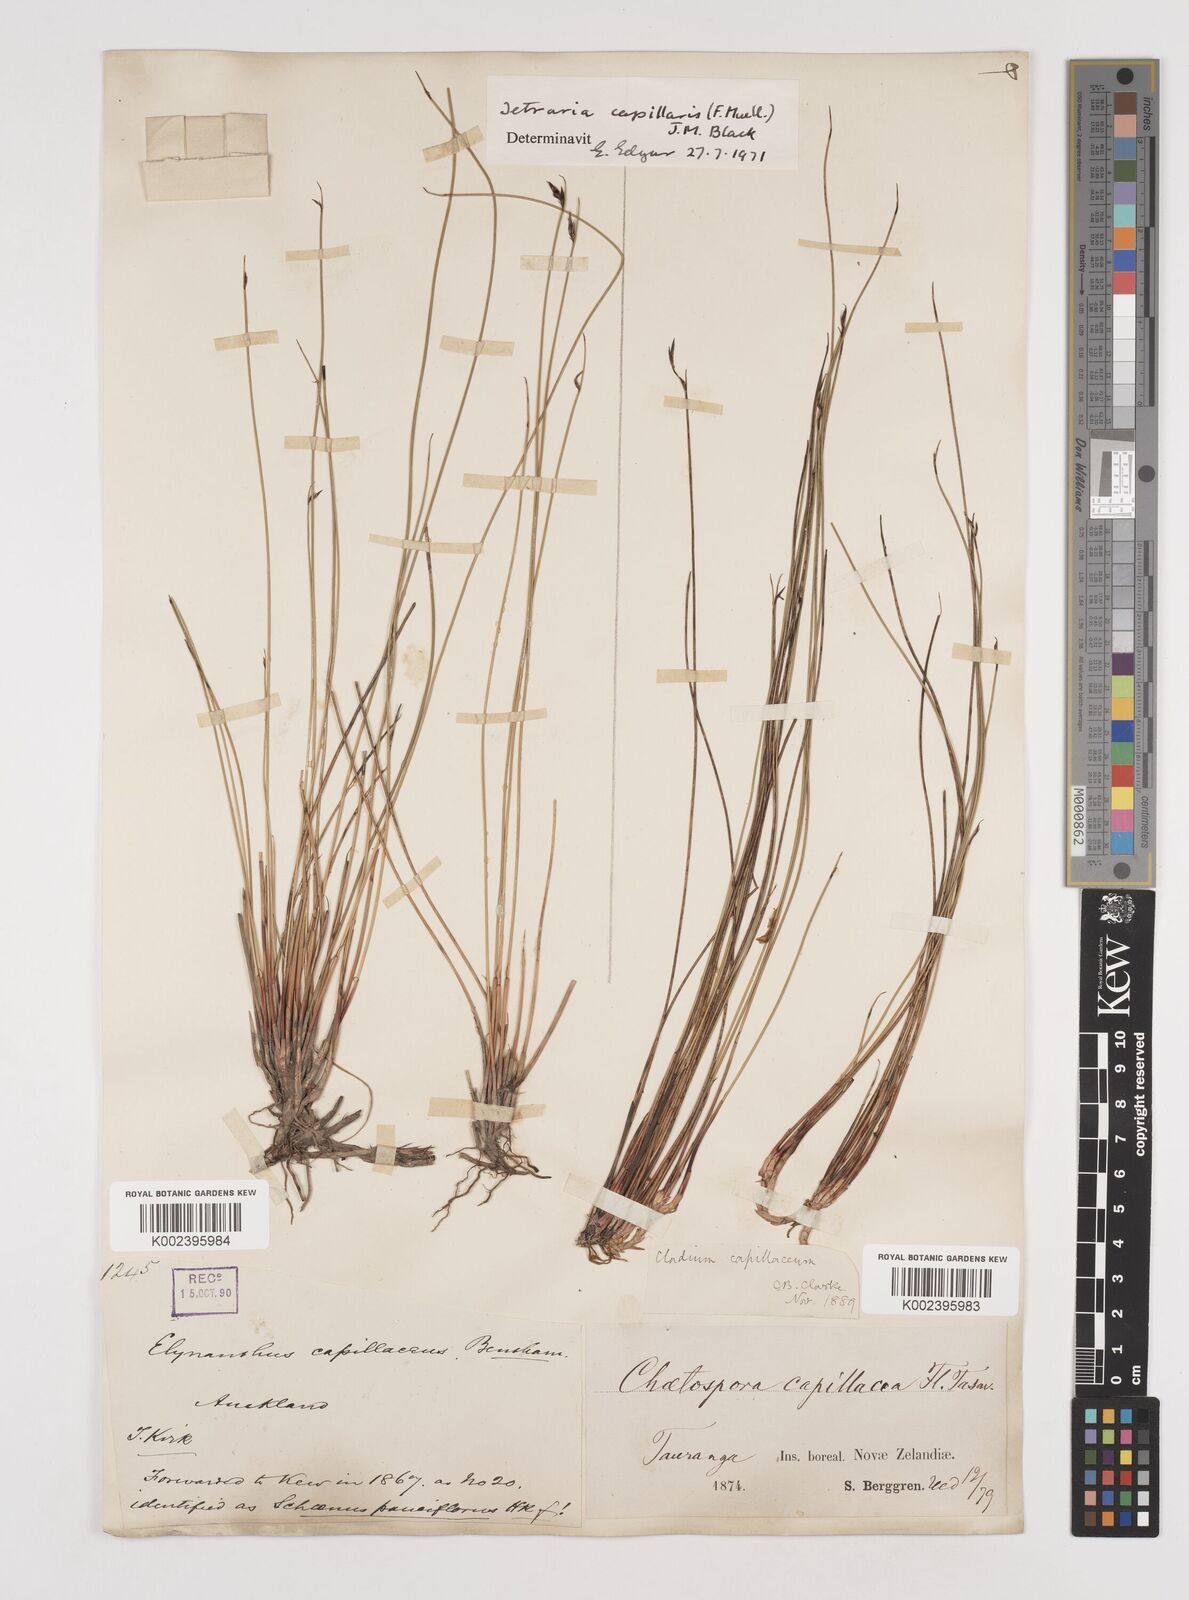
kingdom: Plantae
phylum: Tracheophyta
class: Liliopsida
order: Poales
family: Cyperaceae
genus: Tetraria
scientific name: Tetraria capillaris
